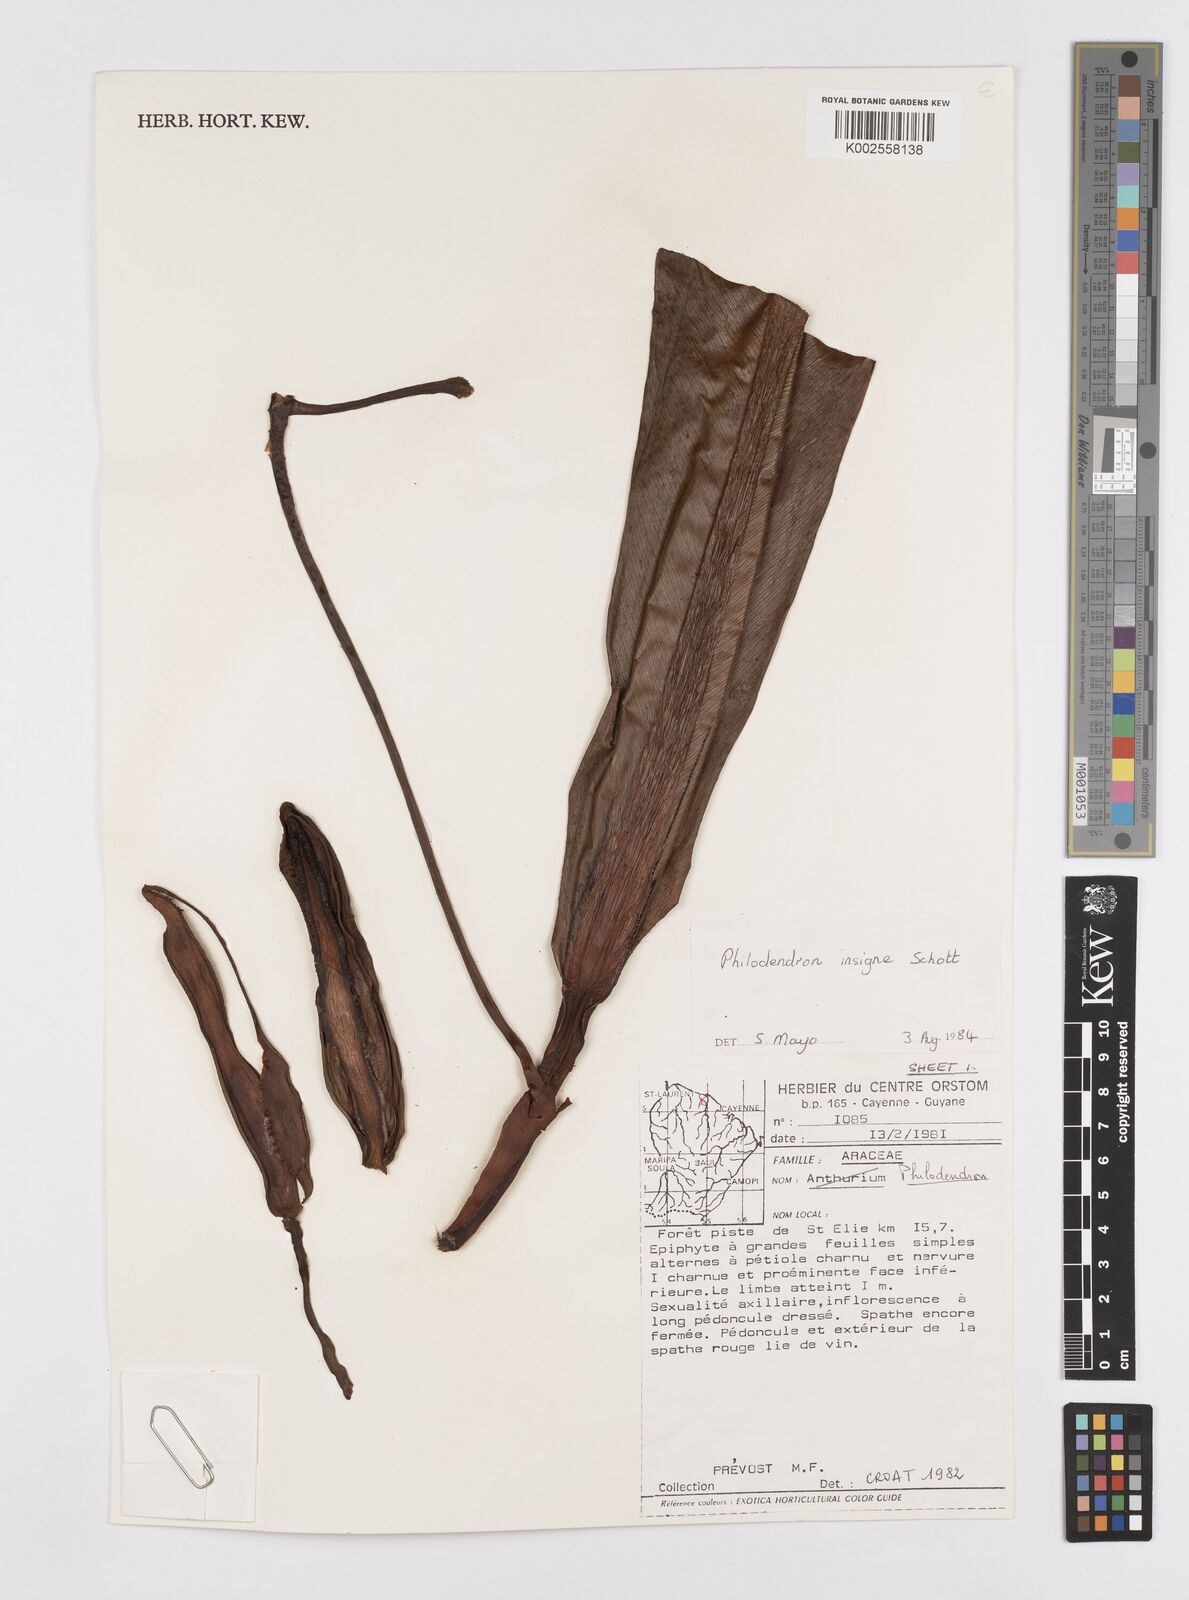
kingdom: Plantae
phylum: Tracheophyta
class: Liliopsida
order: Alismatales
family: Araceae
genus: Philodendron
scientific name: Philodendron insigne
